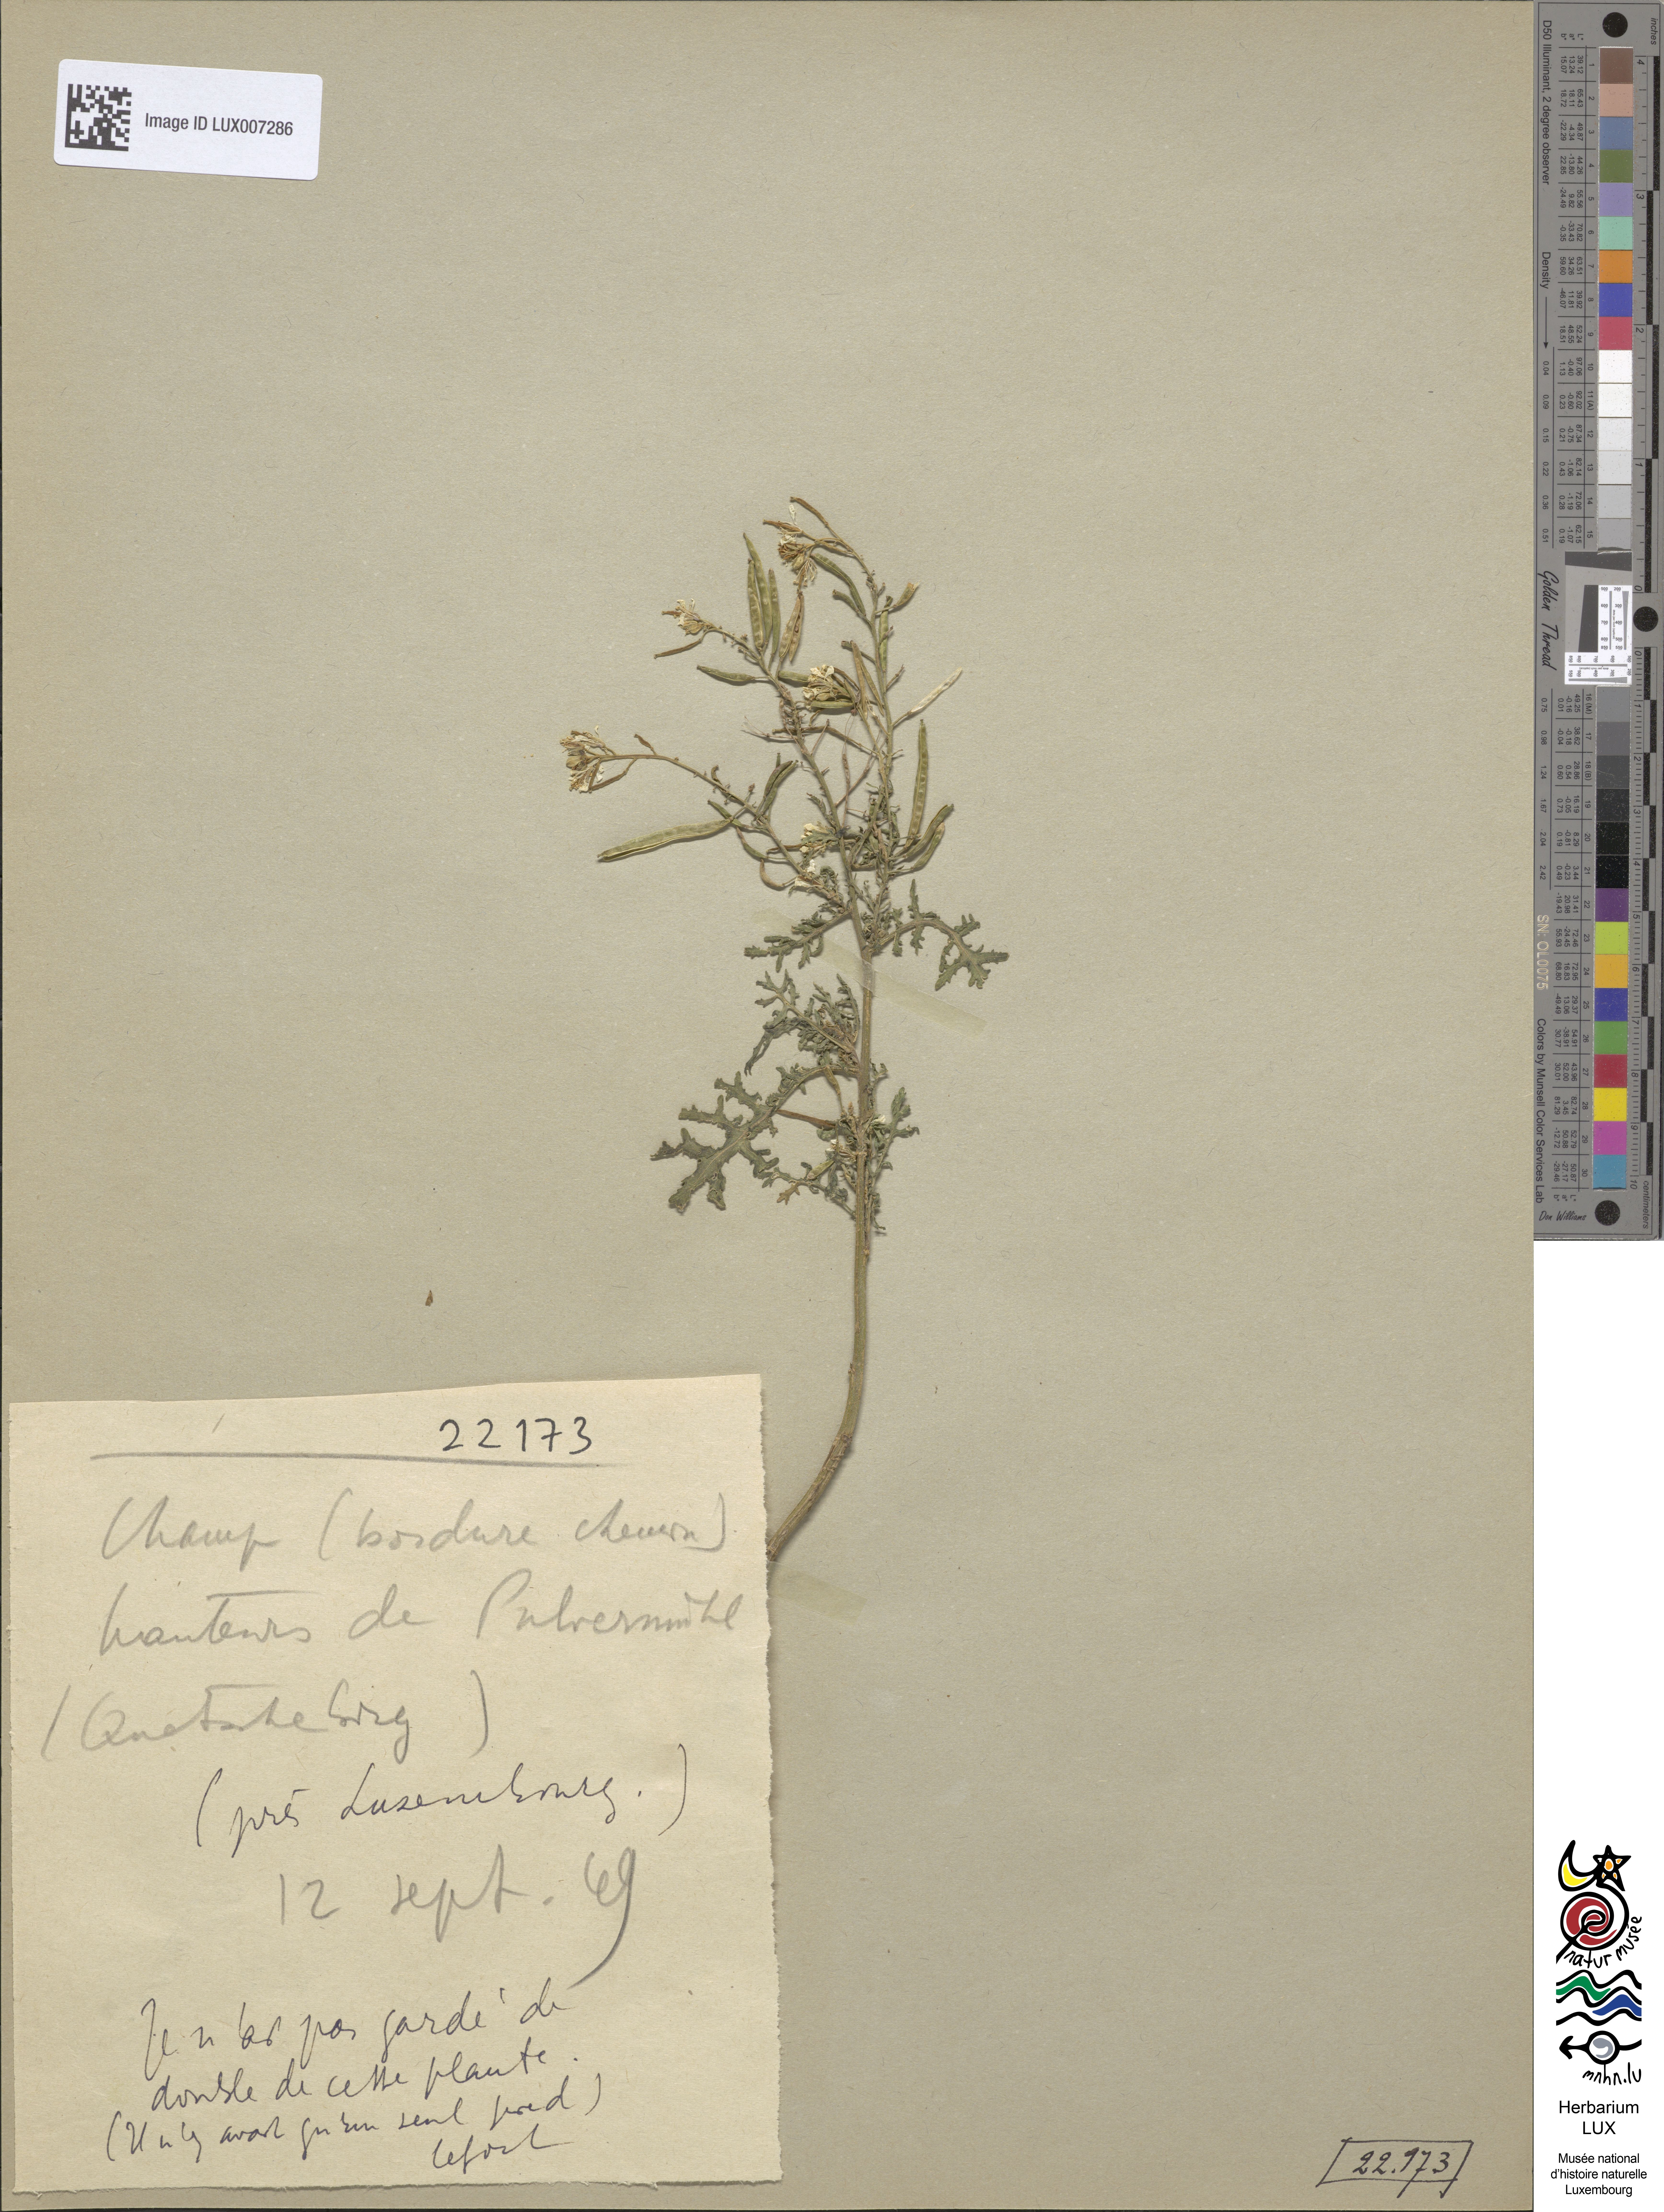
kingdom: Plantae
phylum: Tracheophyta
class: Magnoliopsida
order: Brassicales
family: Brassicaceae
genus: Erucastrum
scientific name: Erucastrum gallicum
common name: Hairy rocket
